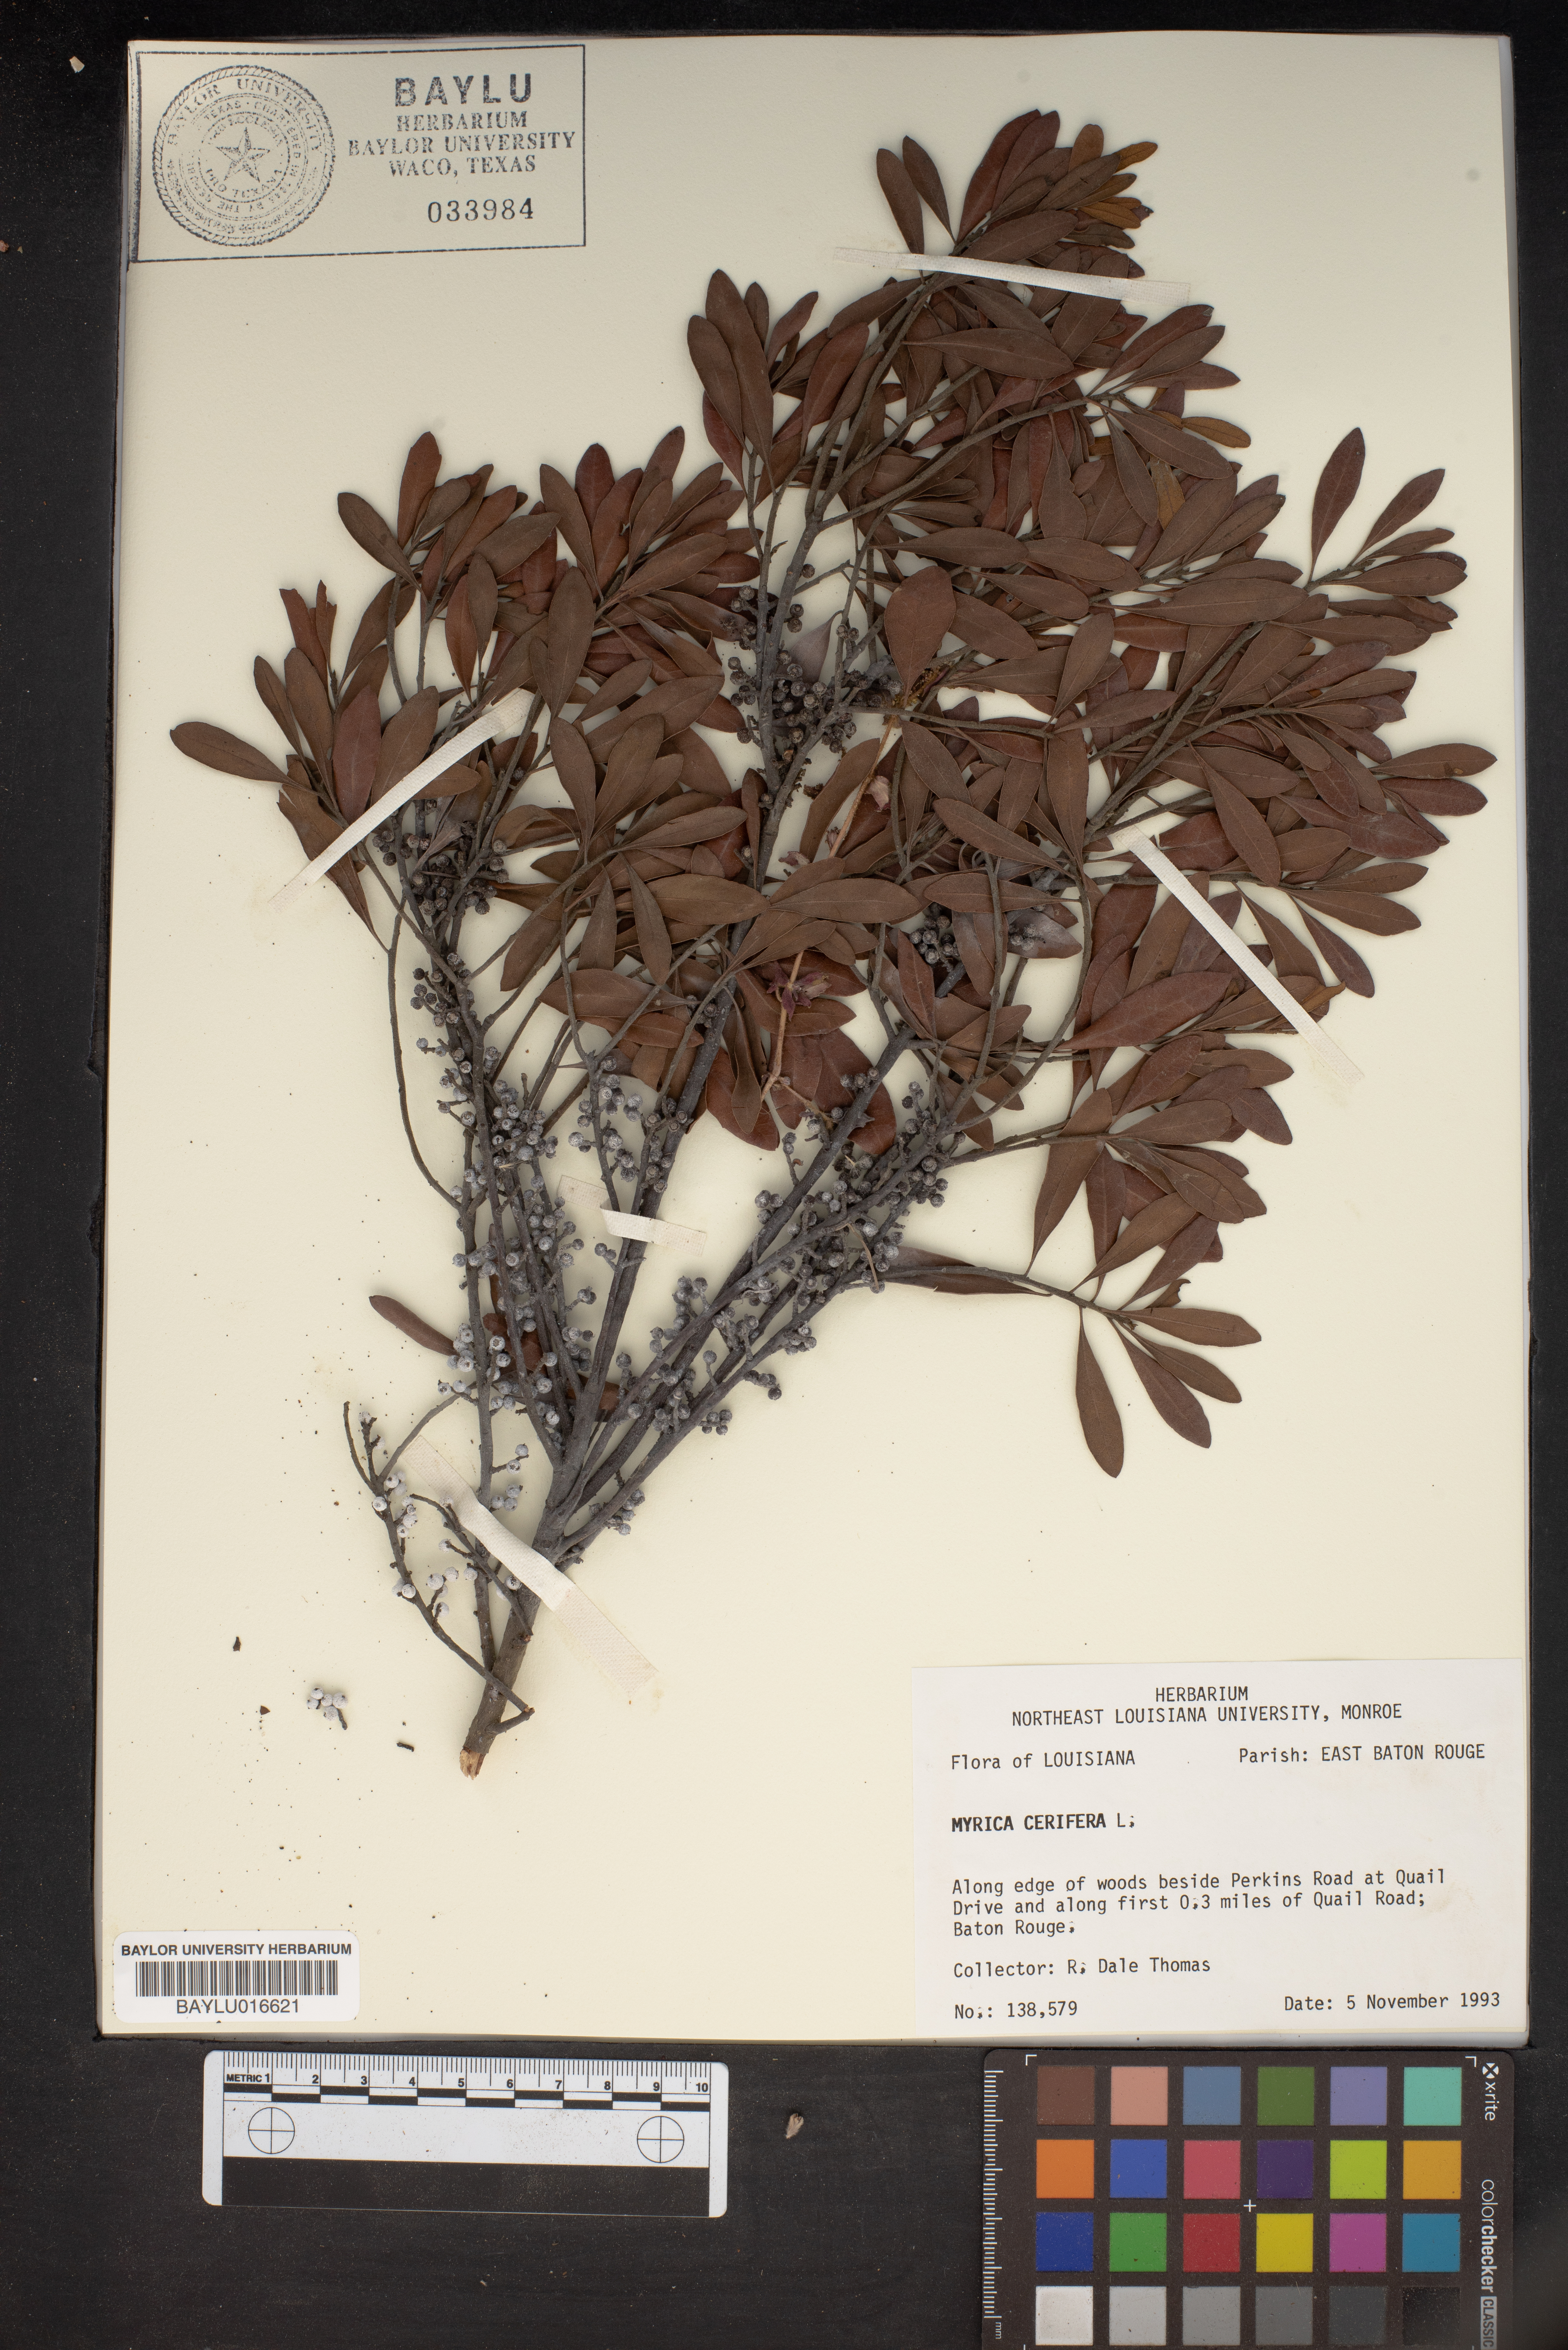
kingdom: Plantae
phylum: Tracheophyta
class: Magnoliopsida
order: Fagales
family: Myricaceae
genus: Morella
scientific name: Morella cerifera
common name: Wax myrtle
